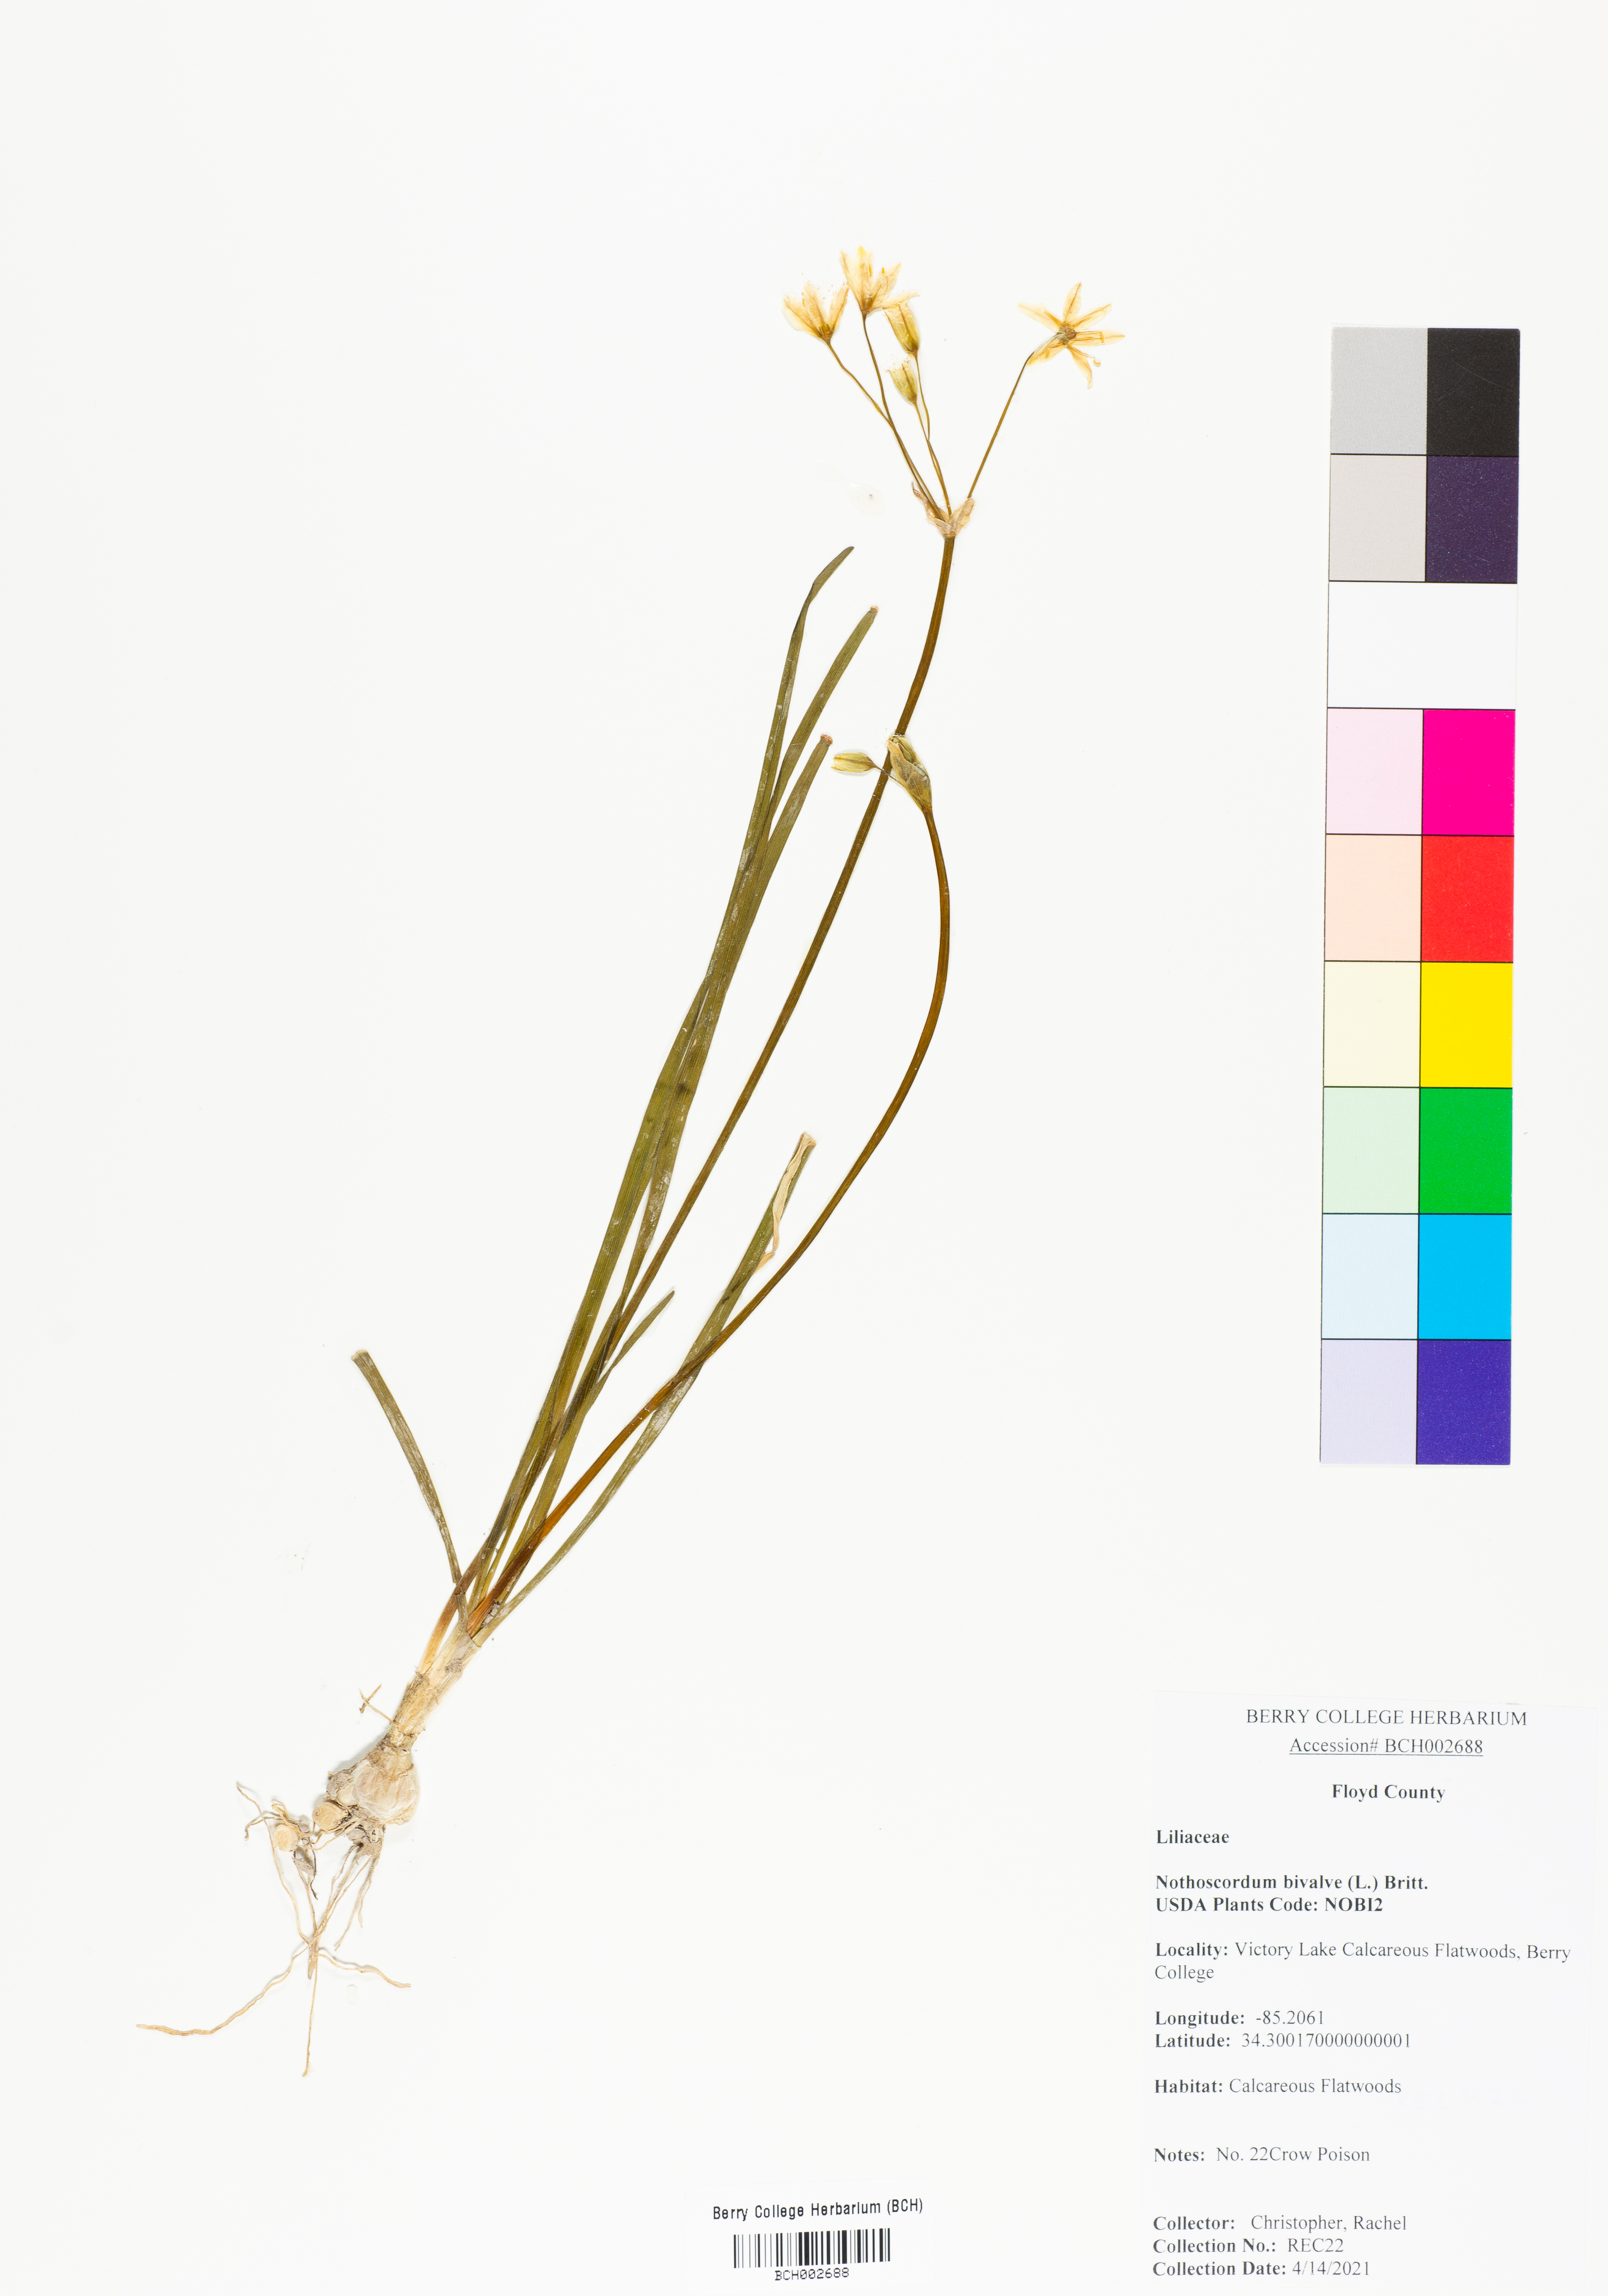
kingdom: Plantae
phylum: Tracheophyta
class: Liliopsida
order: Asparagales
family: Amaryllidaceae
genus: Nothoscordum
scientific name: Nothoscordum bivalve
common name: Crow-poison
